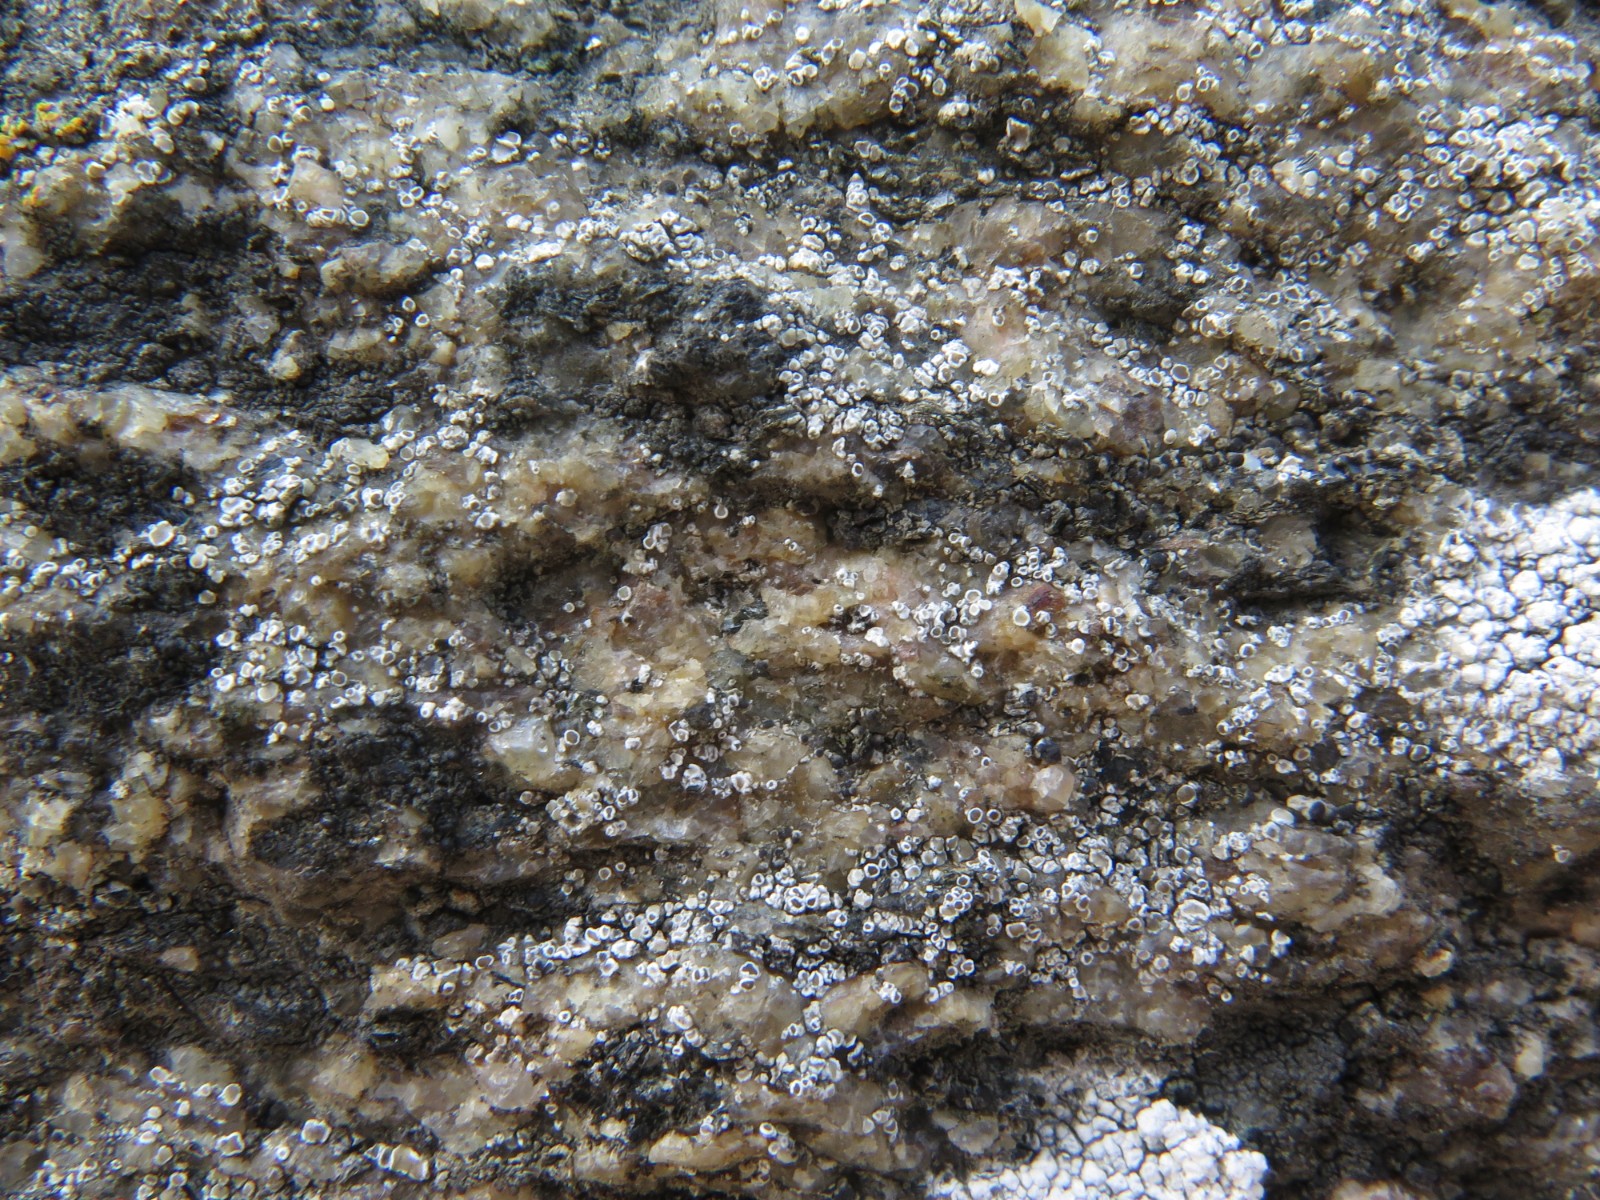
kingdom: Fungi
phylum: Ascomycota
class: Lecanoromycetes
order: Lecanorales
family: Lecanoraceae
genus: Polyozosia
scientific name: Polyozosia dispersa
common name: spredt kantskivelav
